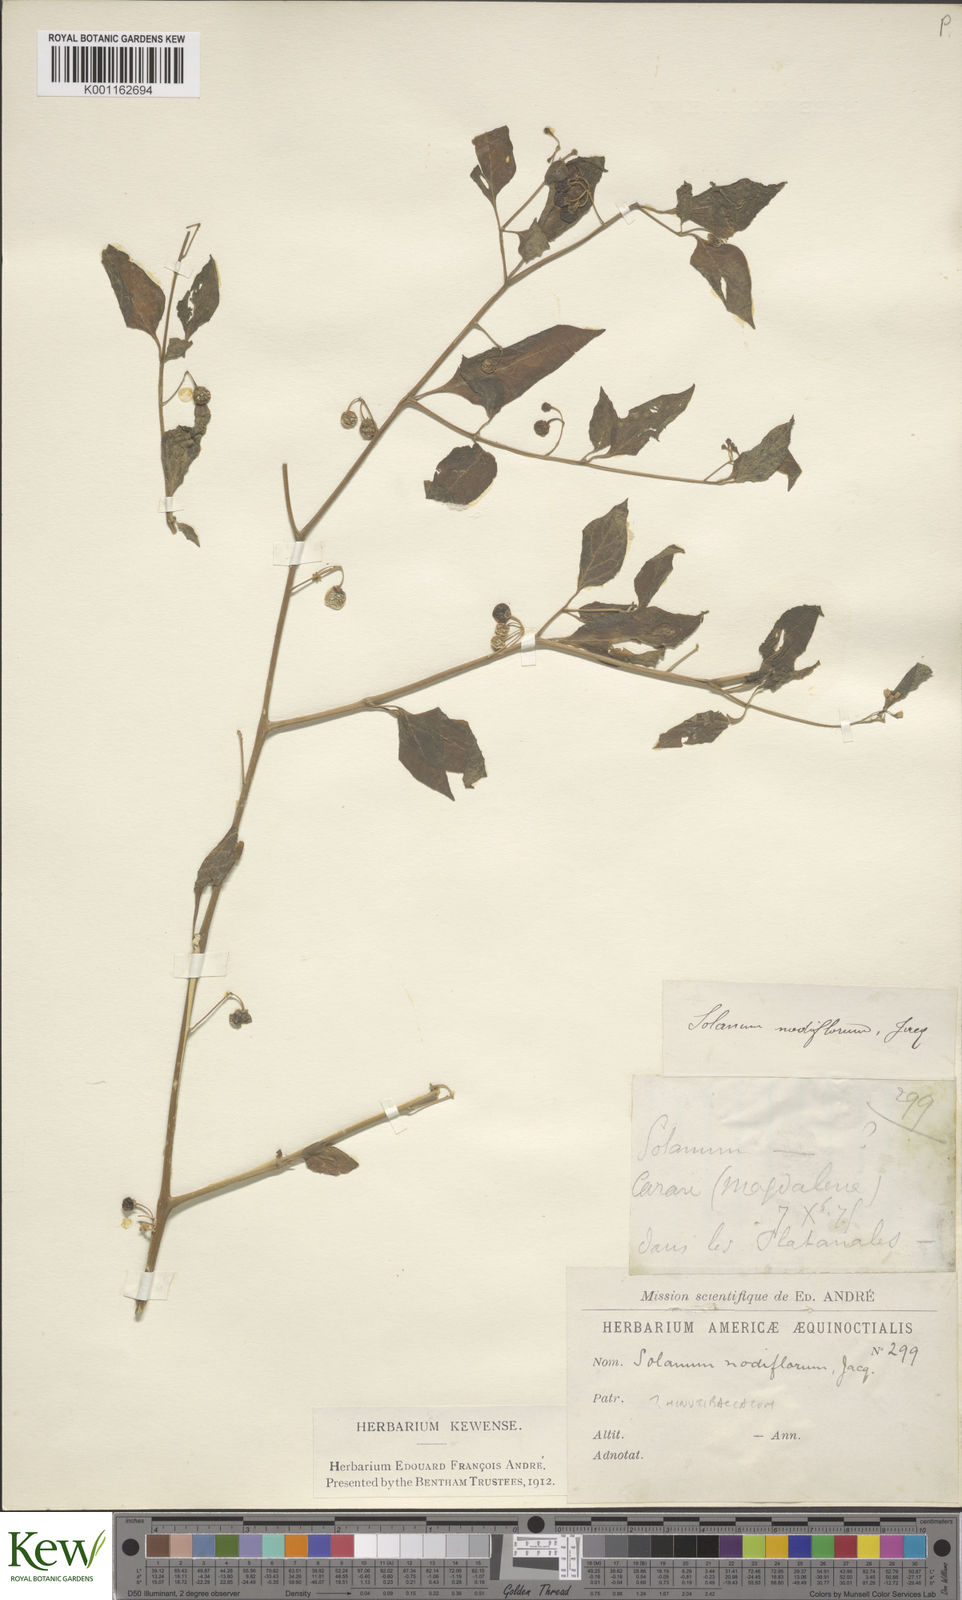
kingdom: Plantae
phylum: Tracheophyta
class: Magnoliopsida
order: Solanales
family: Solanaceae
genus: Solanum
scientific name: Solanum americanum
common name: American black nightshade
